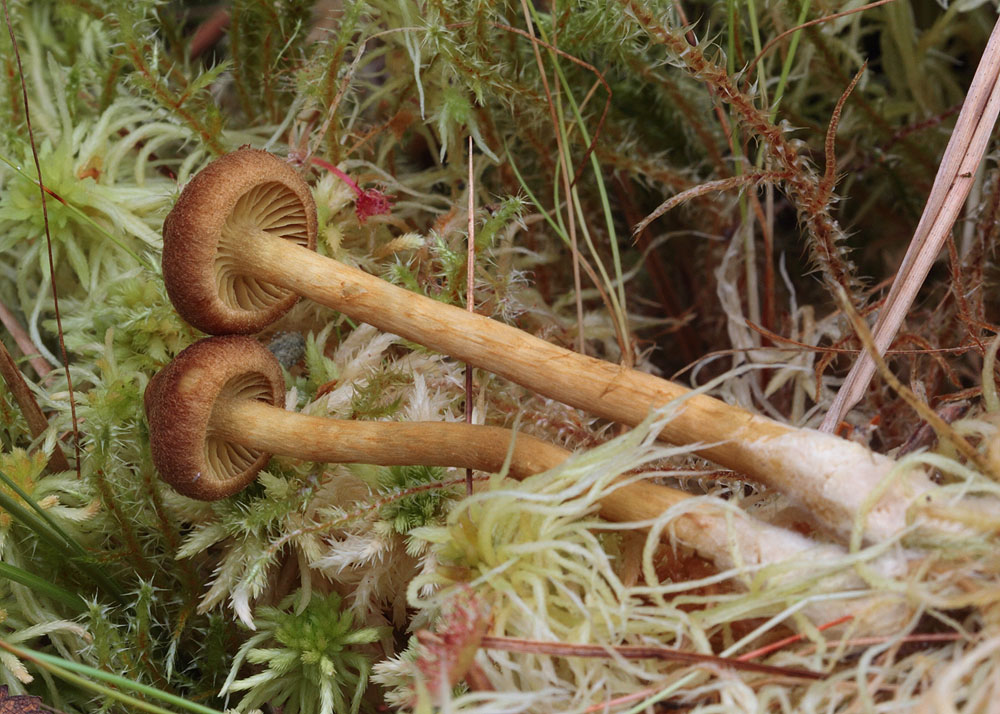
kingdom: Fungi
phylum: Basidiomycota
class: Agaricomycetes
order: Agaricales
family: Cortinariaceae
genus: Cortinarius
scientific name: Cortinarius subfusipes
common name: højmose-slørhat
